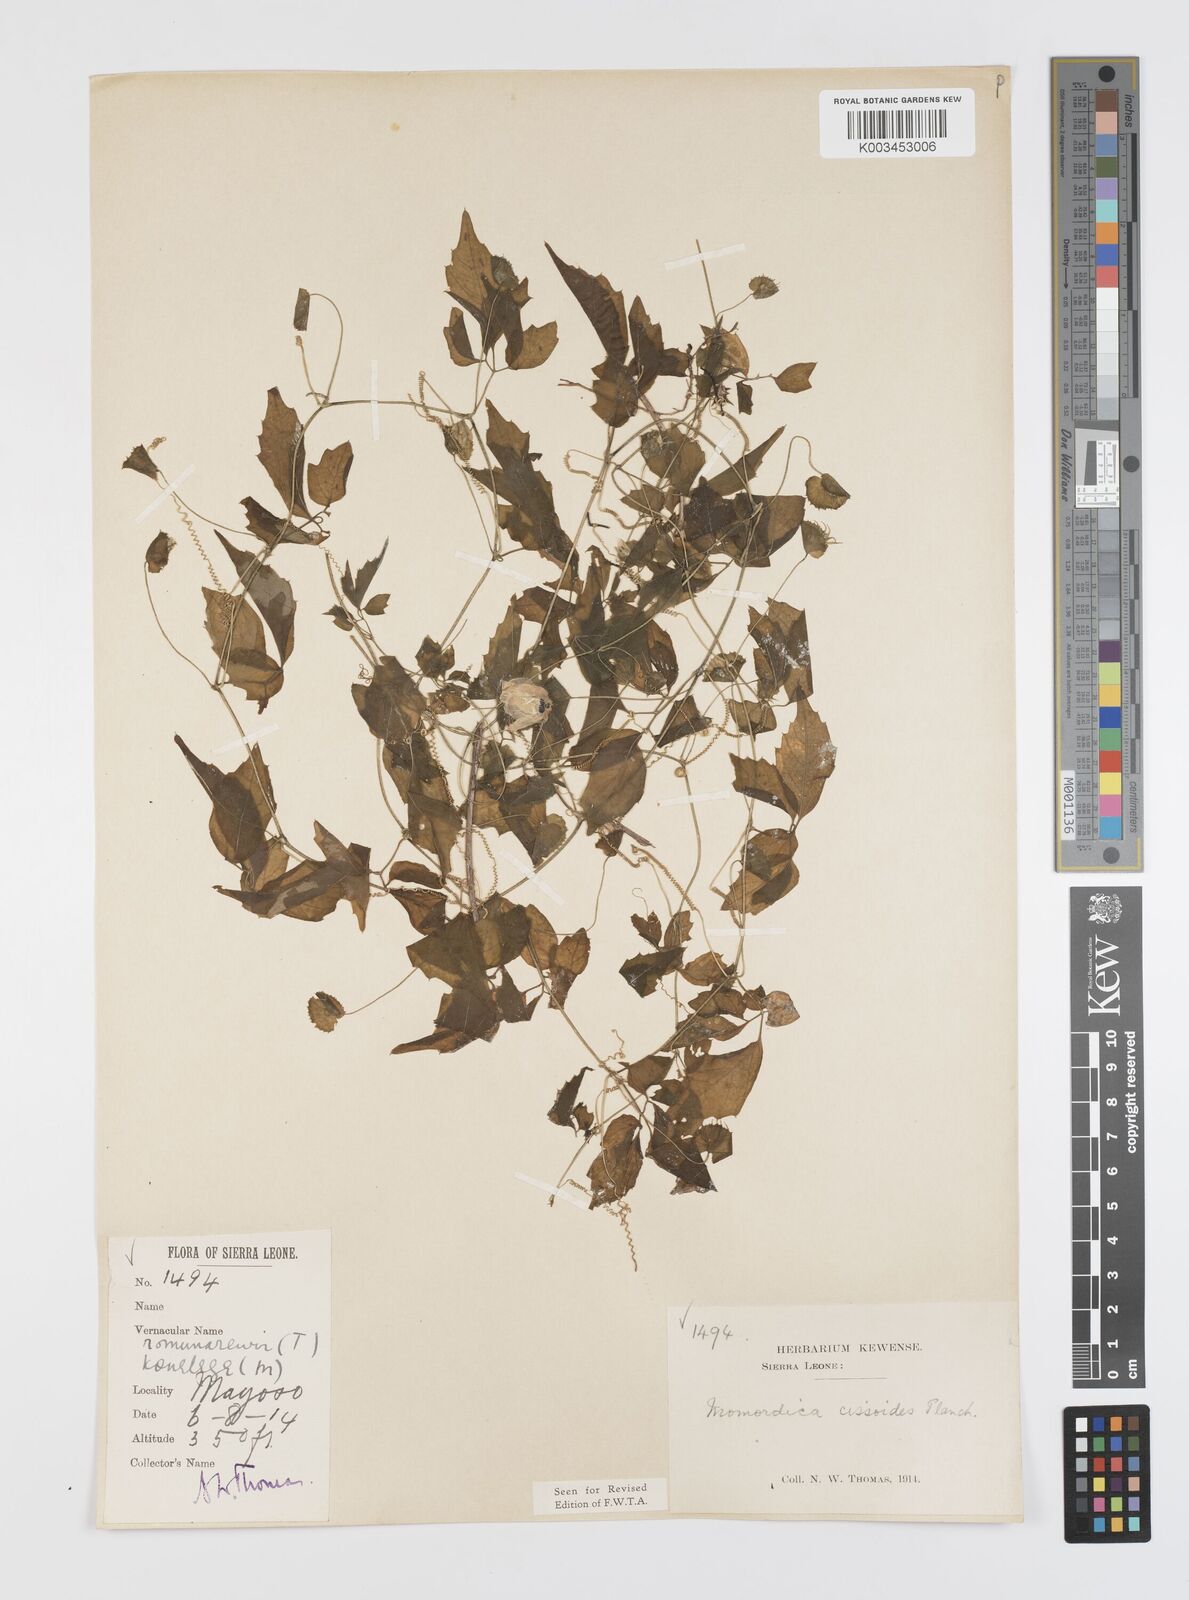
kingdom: Plantae
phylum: Tracheophyta
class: Magnoliopsida
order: Cucurbitales
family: Cucurbitaceae
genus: Momordica
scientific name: Momordica cissoides
